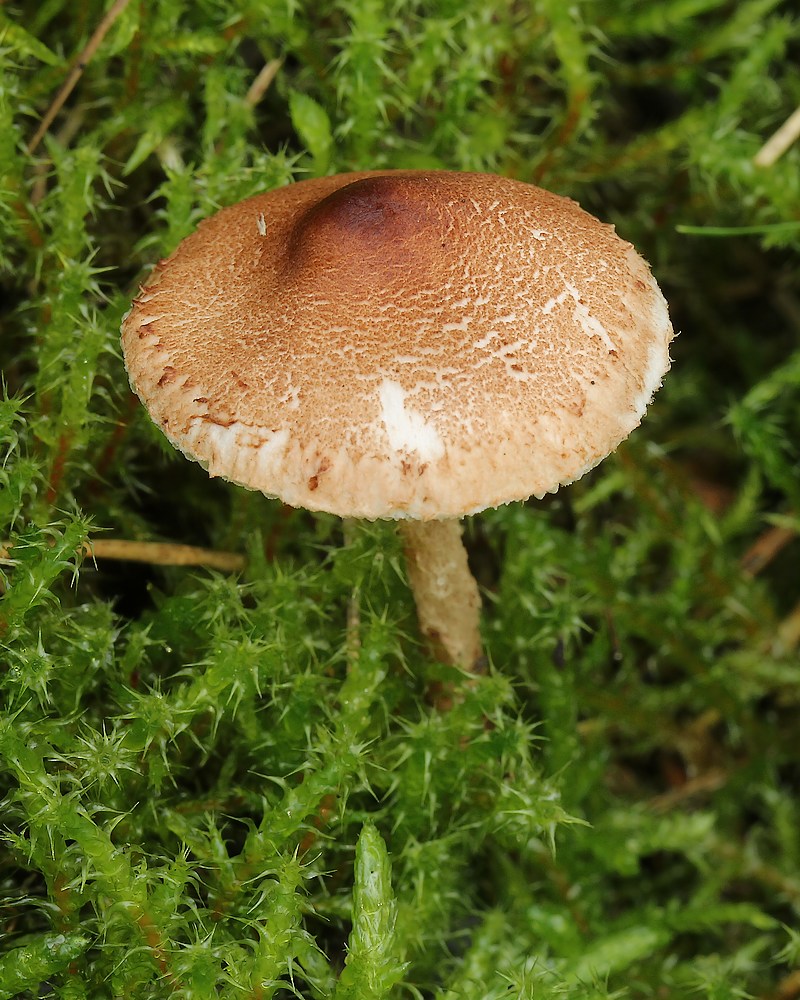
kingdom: Fungi
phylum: Basidiomycota
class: Agaricomycetes
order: Agaricales
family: Agaricaceae
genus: Lepiota
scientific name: Lepiota
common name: parasolhat
